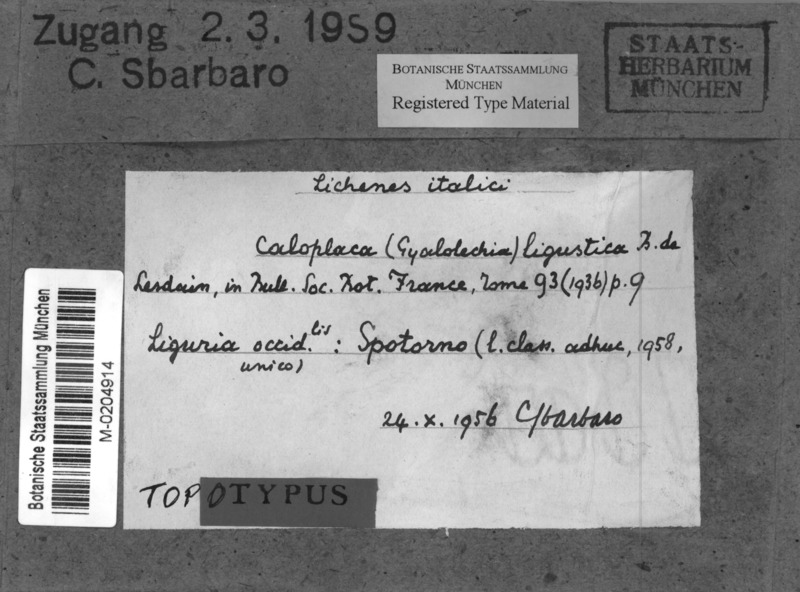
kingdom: Fungi
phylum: Ascomycota
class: Lecanoromycetes
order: Teloschistales
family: Teloschistaceae
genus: Caloplaca
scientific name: Caloplaca ligustica
